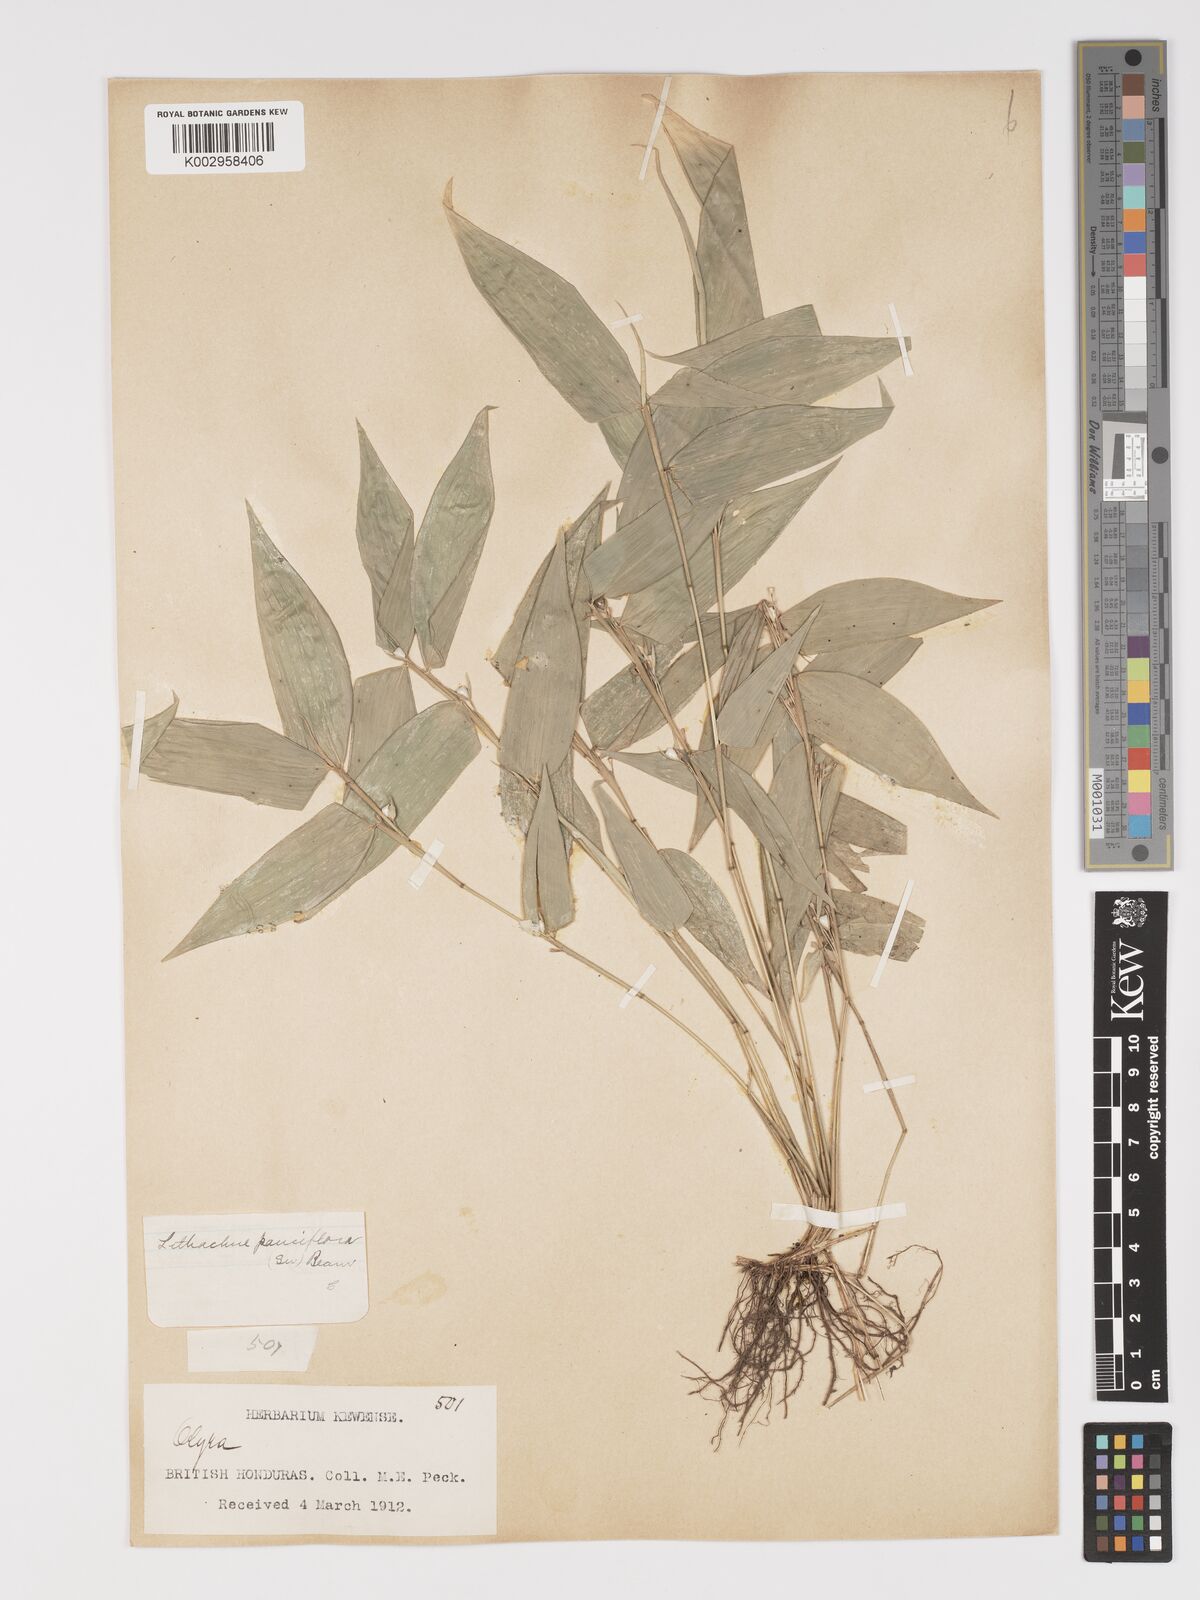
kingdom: Plantae
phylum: Tracheophyta
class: Liliopsida
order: Poales
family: Poaceae
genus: Lithachne
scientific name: Lithachne pauciflora
